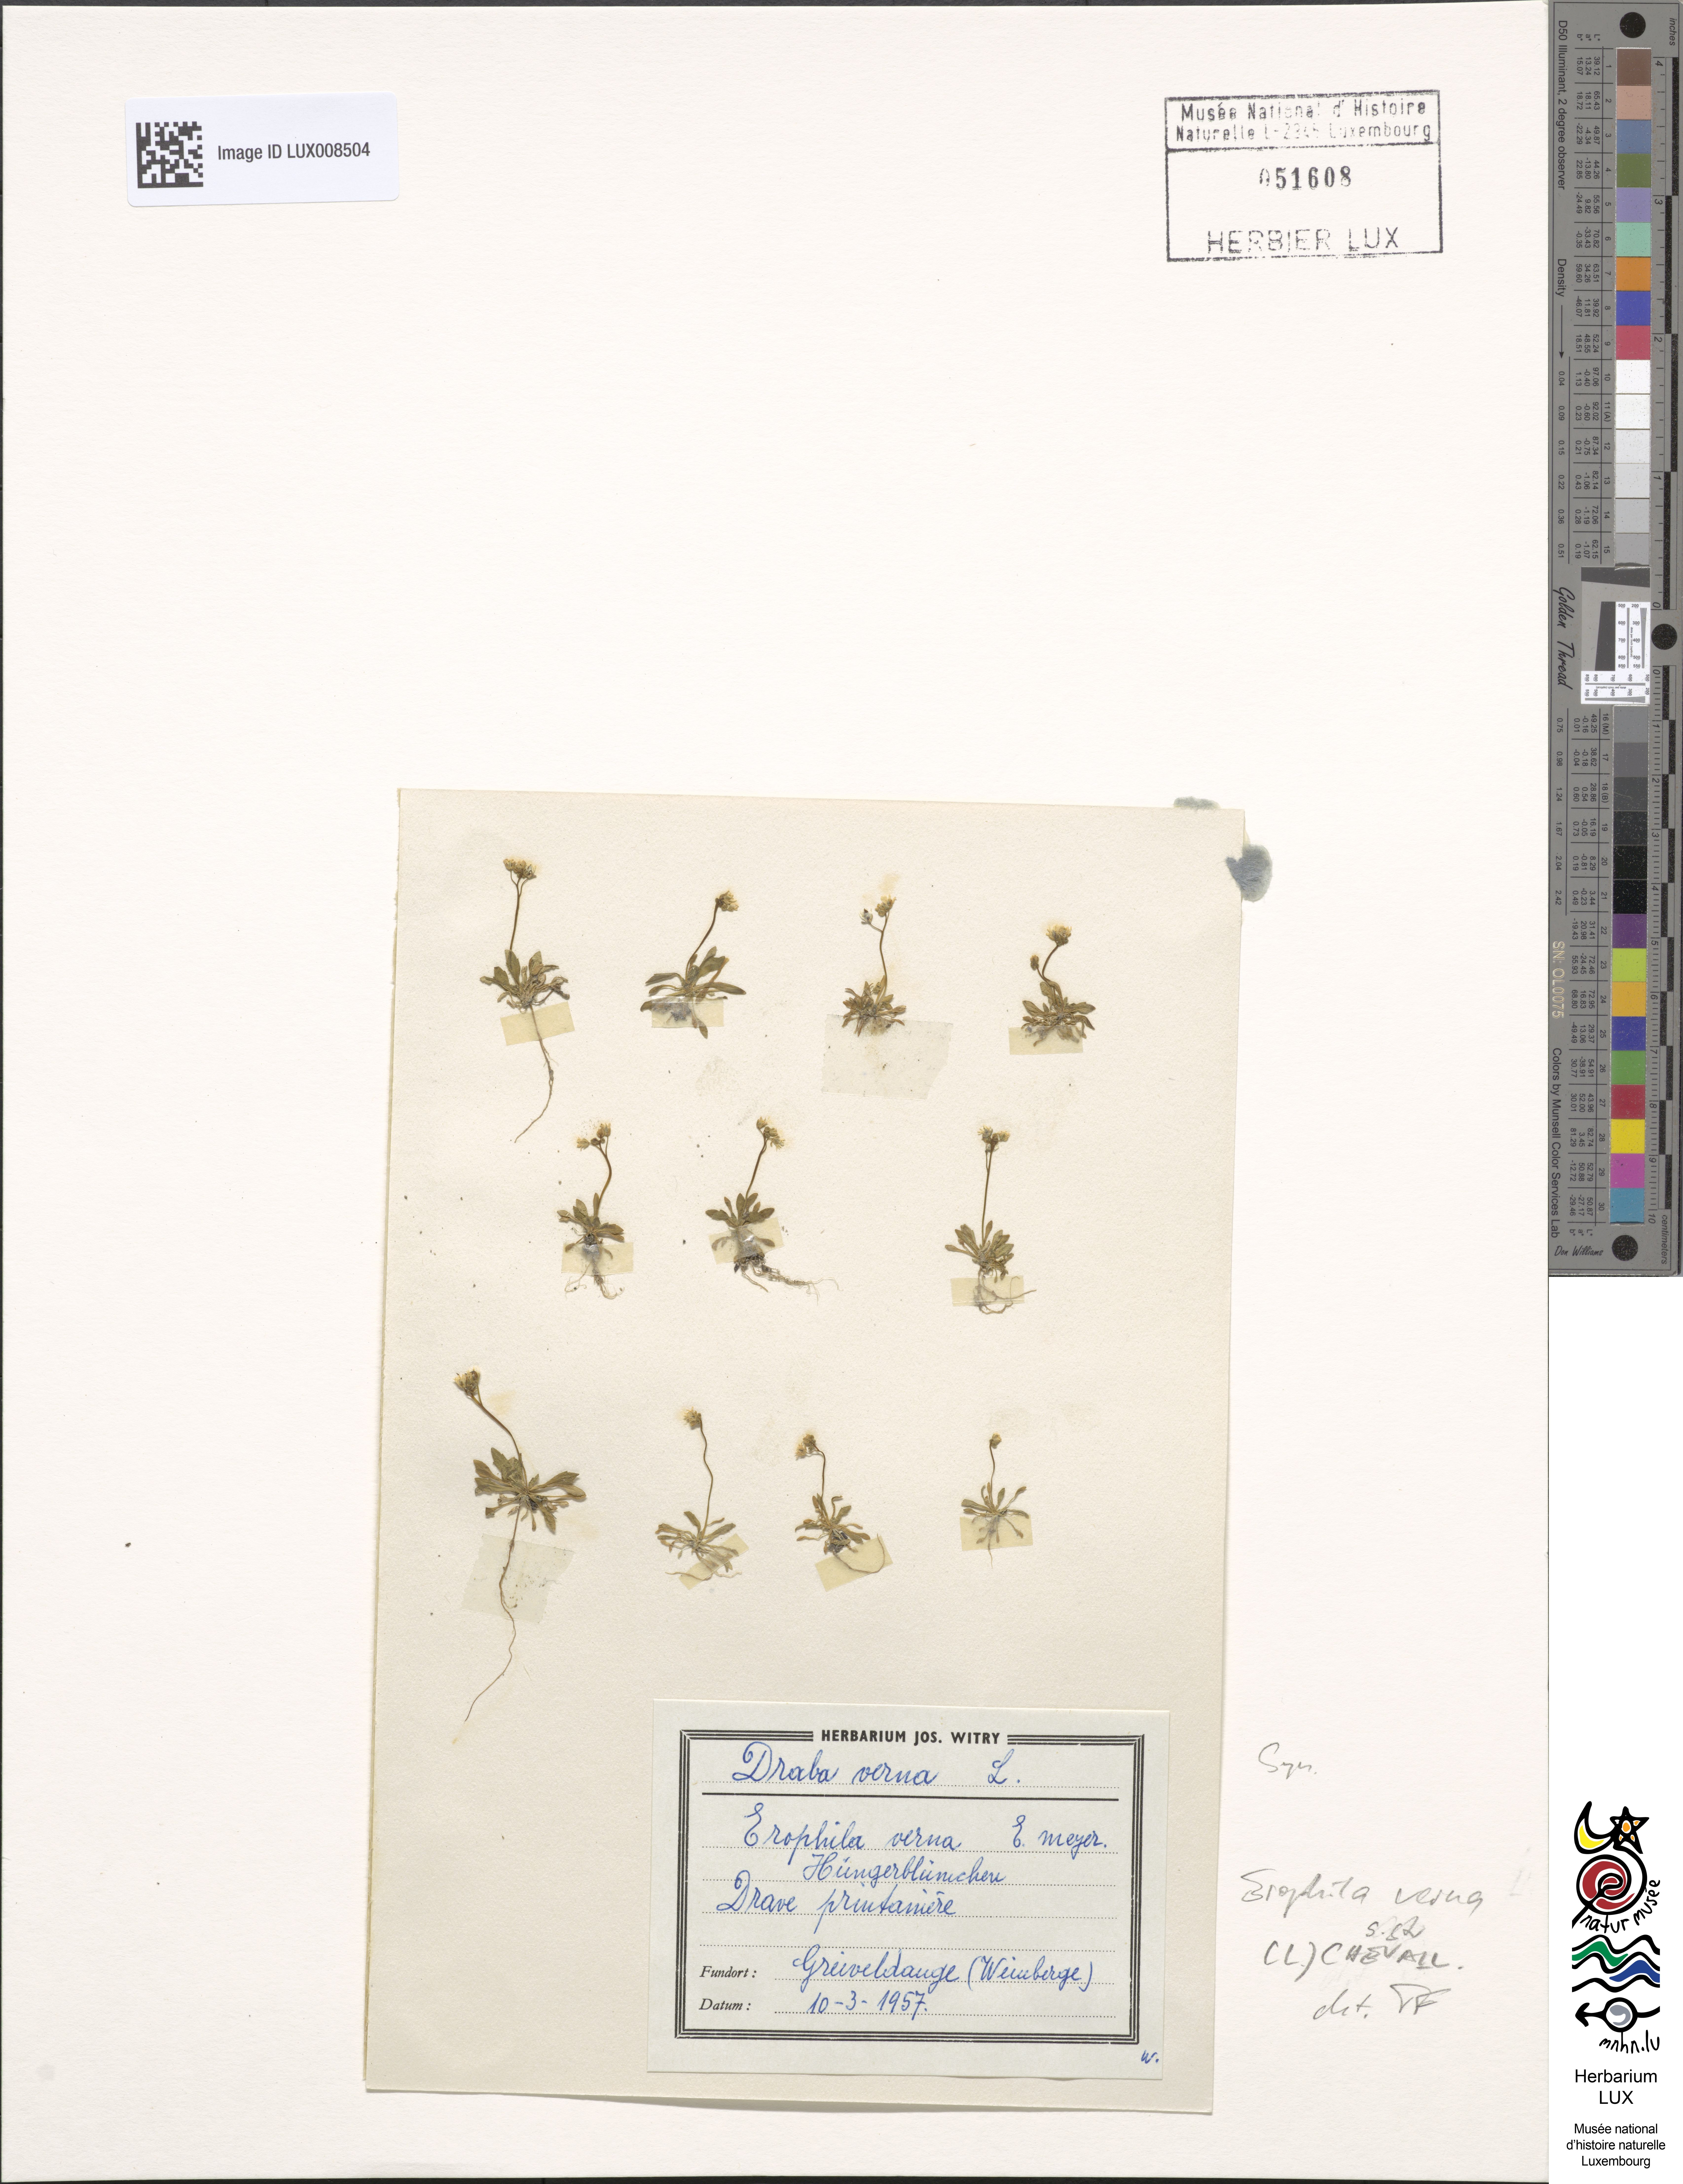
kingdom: Plantae
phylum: Tracheophyta
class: Magnoliopsida
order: Brassicales
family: Brassicaceae
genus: Draba
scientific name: Draba verna
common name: Spring draba
